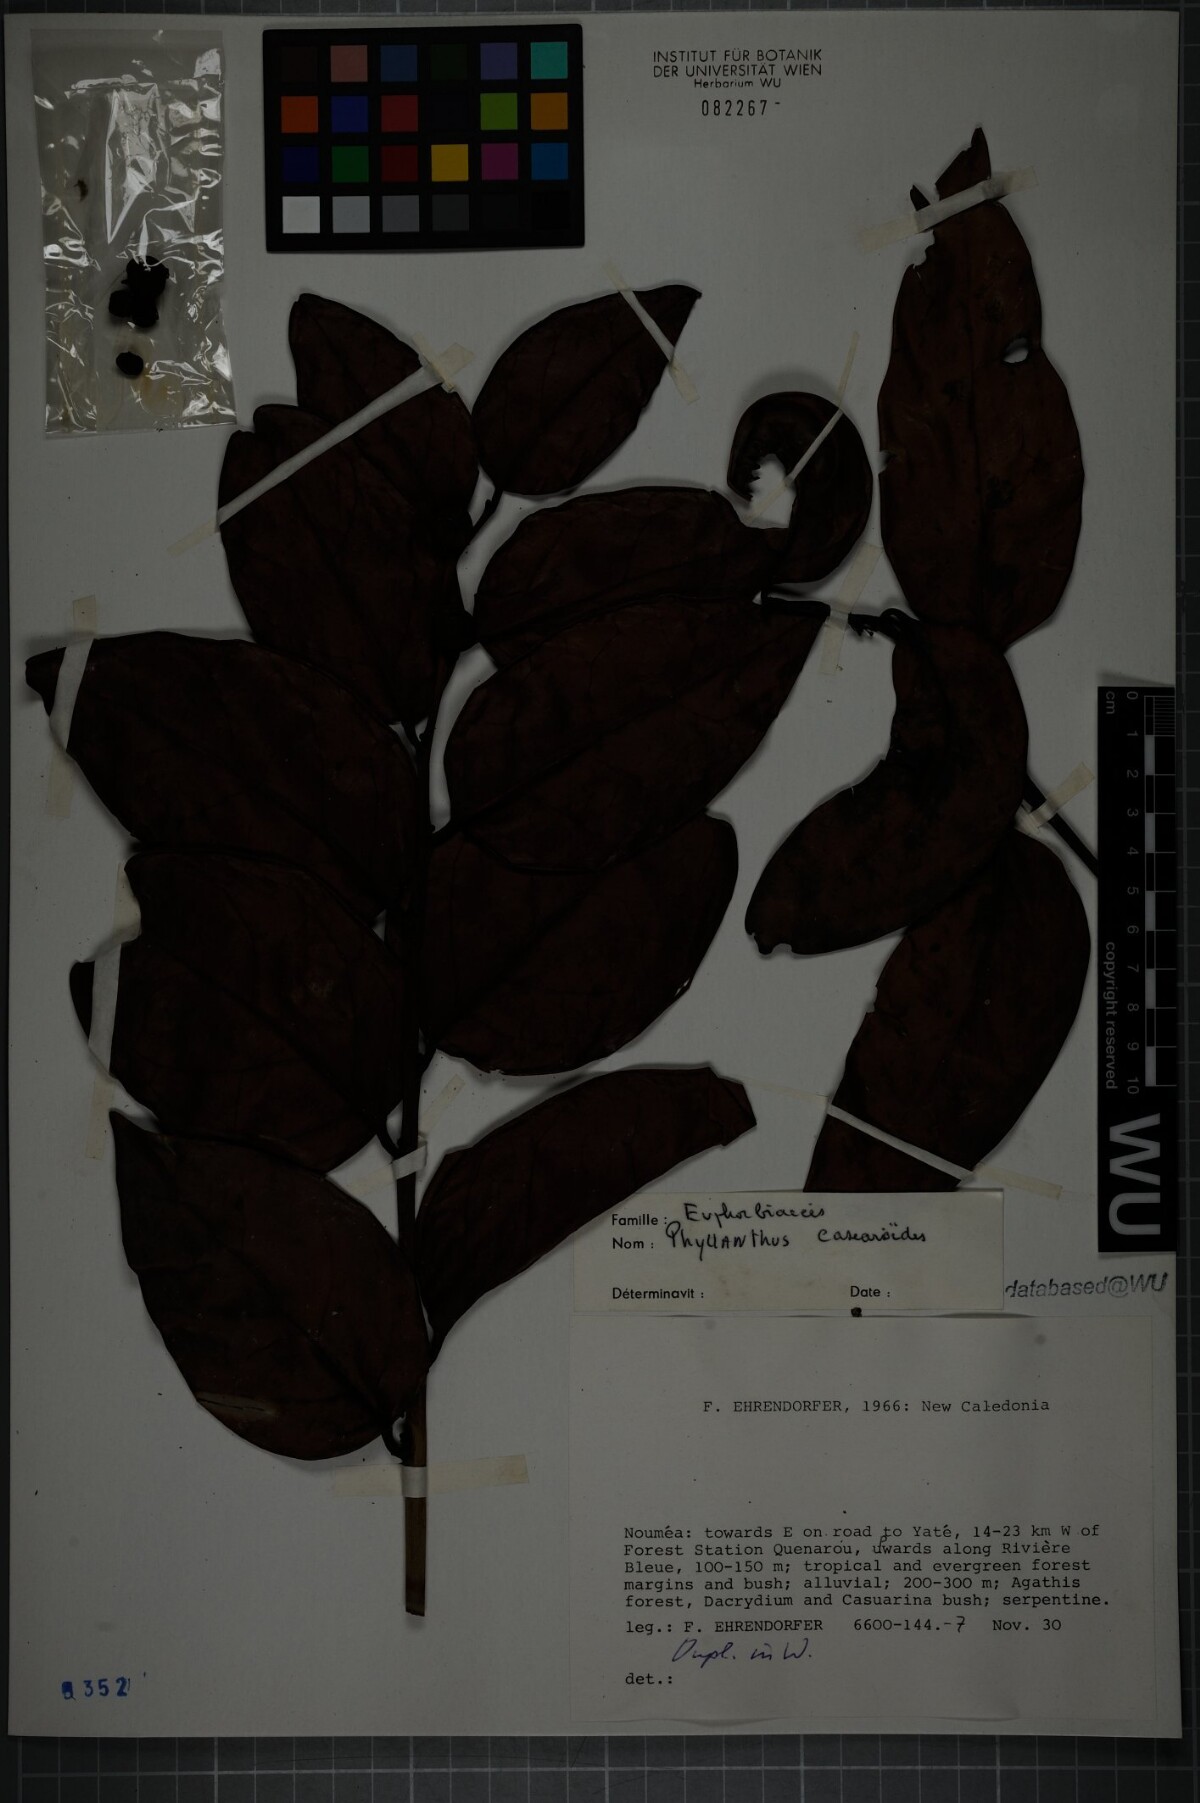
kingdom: Plantae
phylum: Tracheophyta
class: Magnoliopsida
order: Malpighiales
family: Phyllanthaceae
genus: Phyllanthus
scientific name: Phyllanthus casearioides
